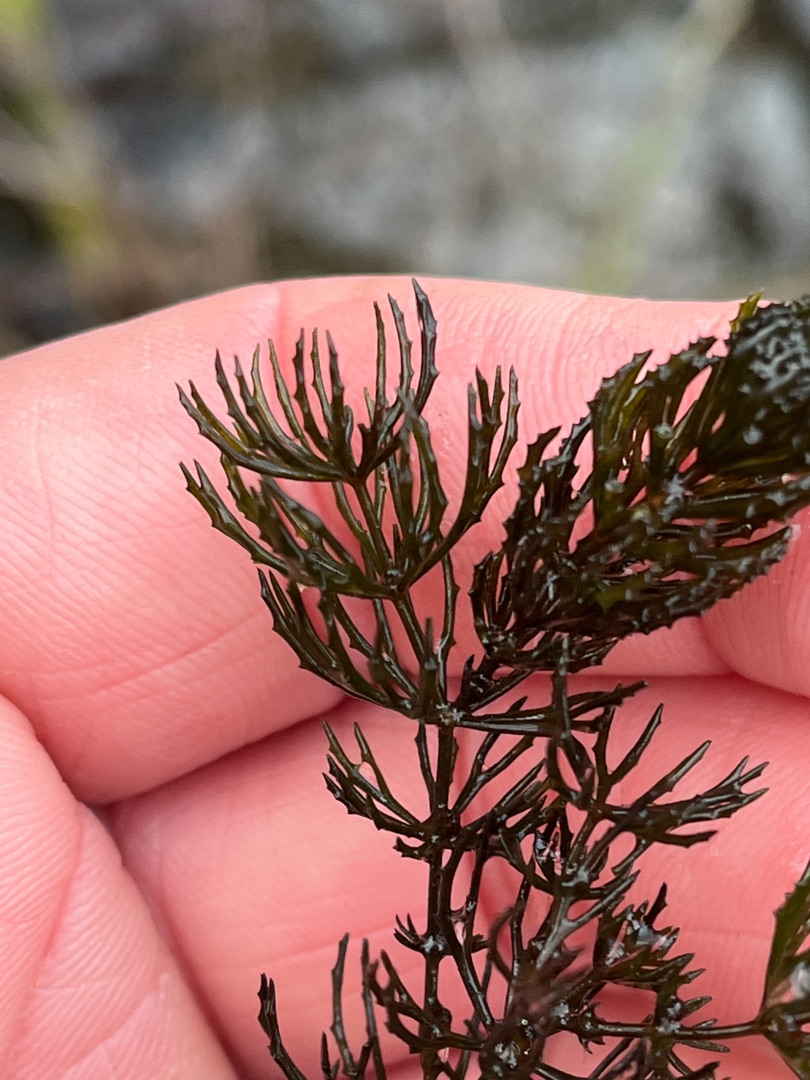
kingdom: Plantae
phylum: Tracheophyta
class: Magnoliopsida
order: Ceratophyllales
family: Ceratophyllaceae
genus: Ceratophyllum
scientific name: Ceratophyllum demersum
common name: Tornfrøet hornblad
